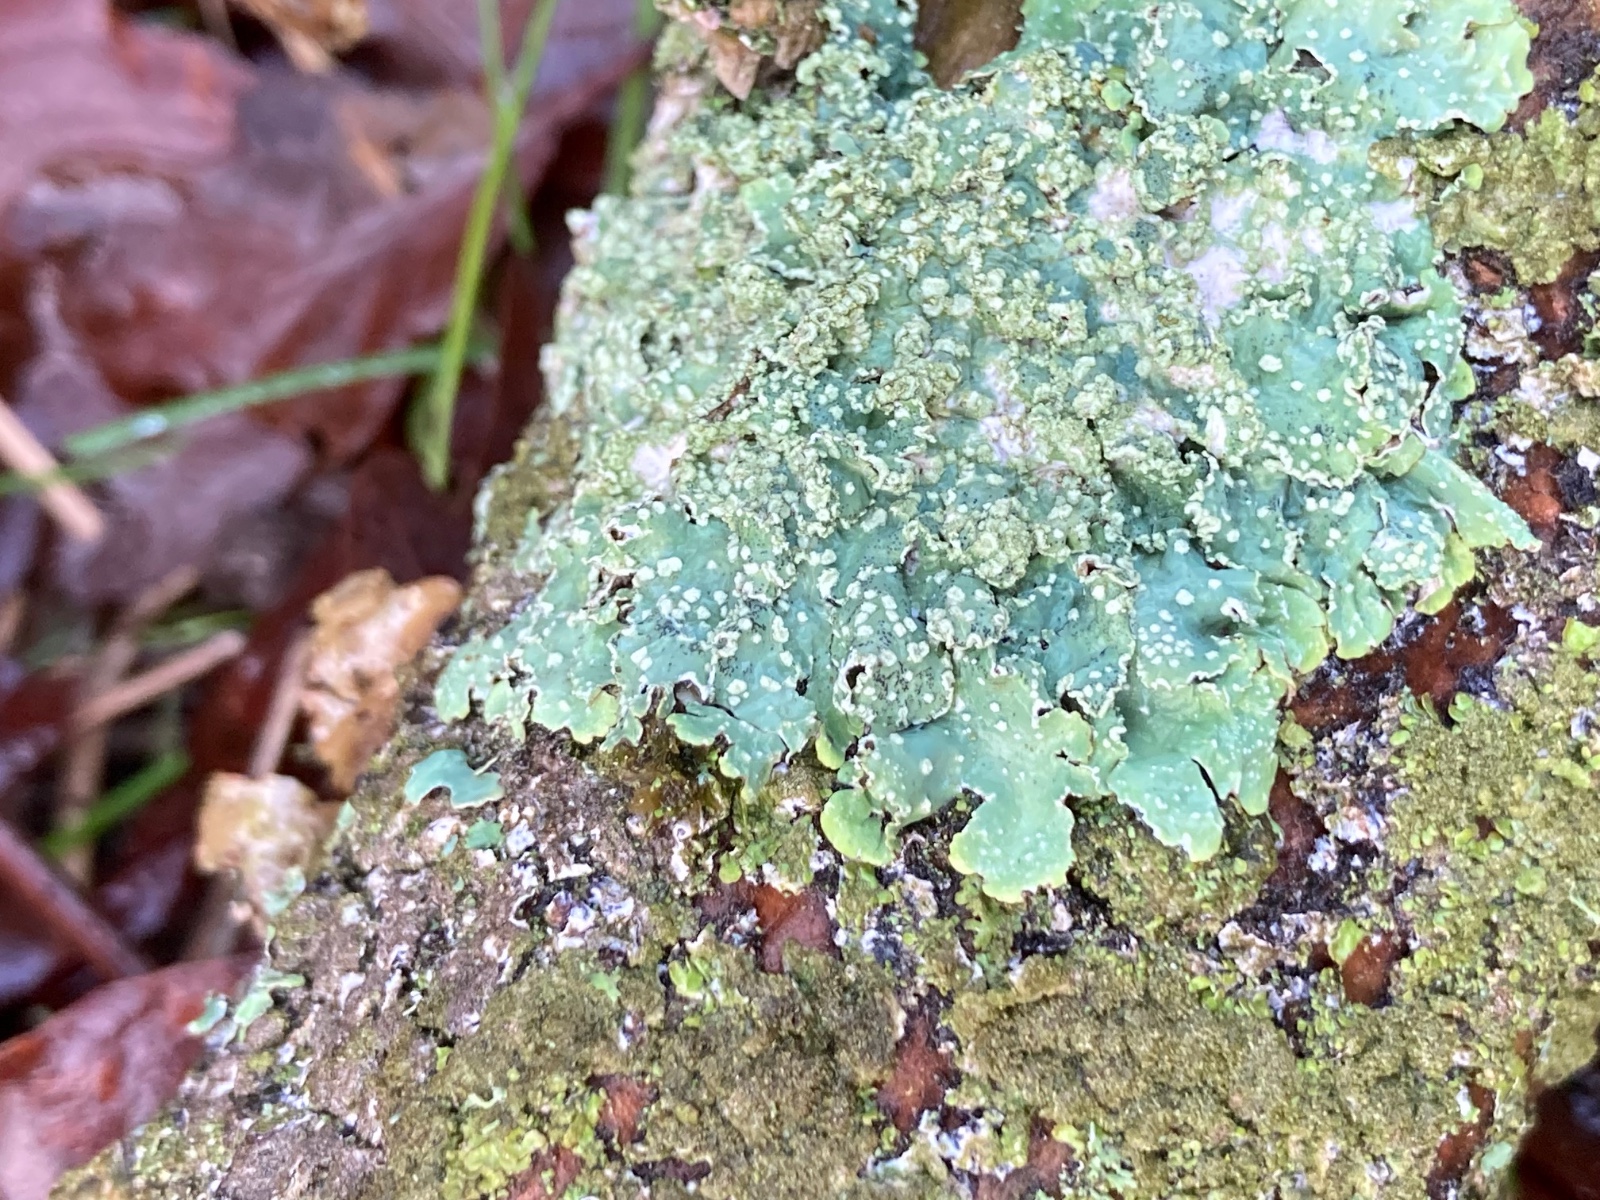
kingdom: Fungi
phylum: Ascomycota
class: Lecanoromycetes
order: Lecanorales
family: Parmeliaceae
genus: Punctelia
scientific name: Punctelia subrudecta
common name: punkt-skållav
